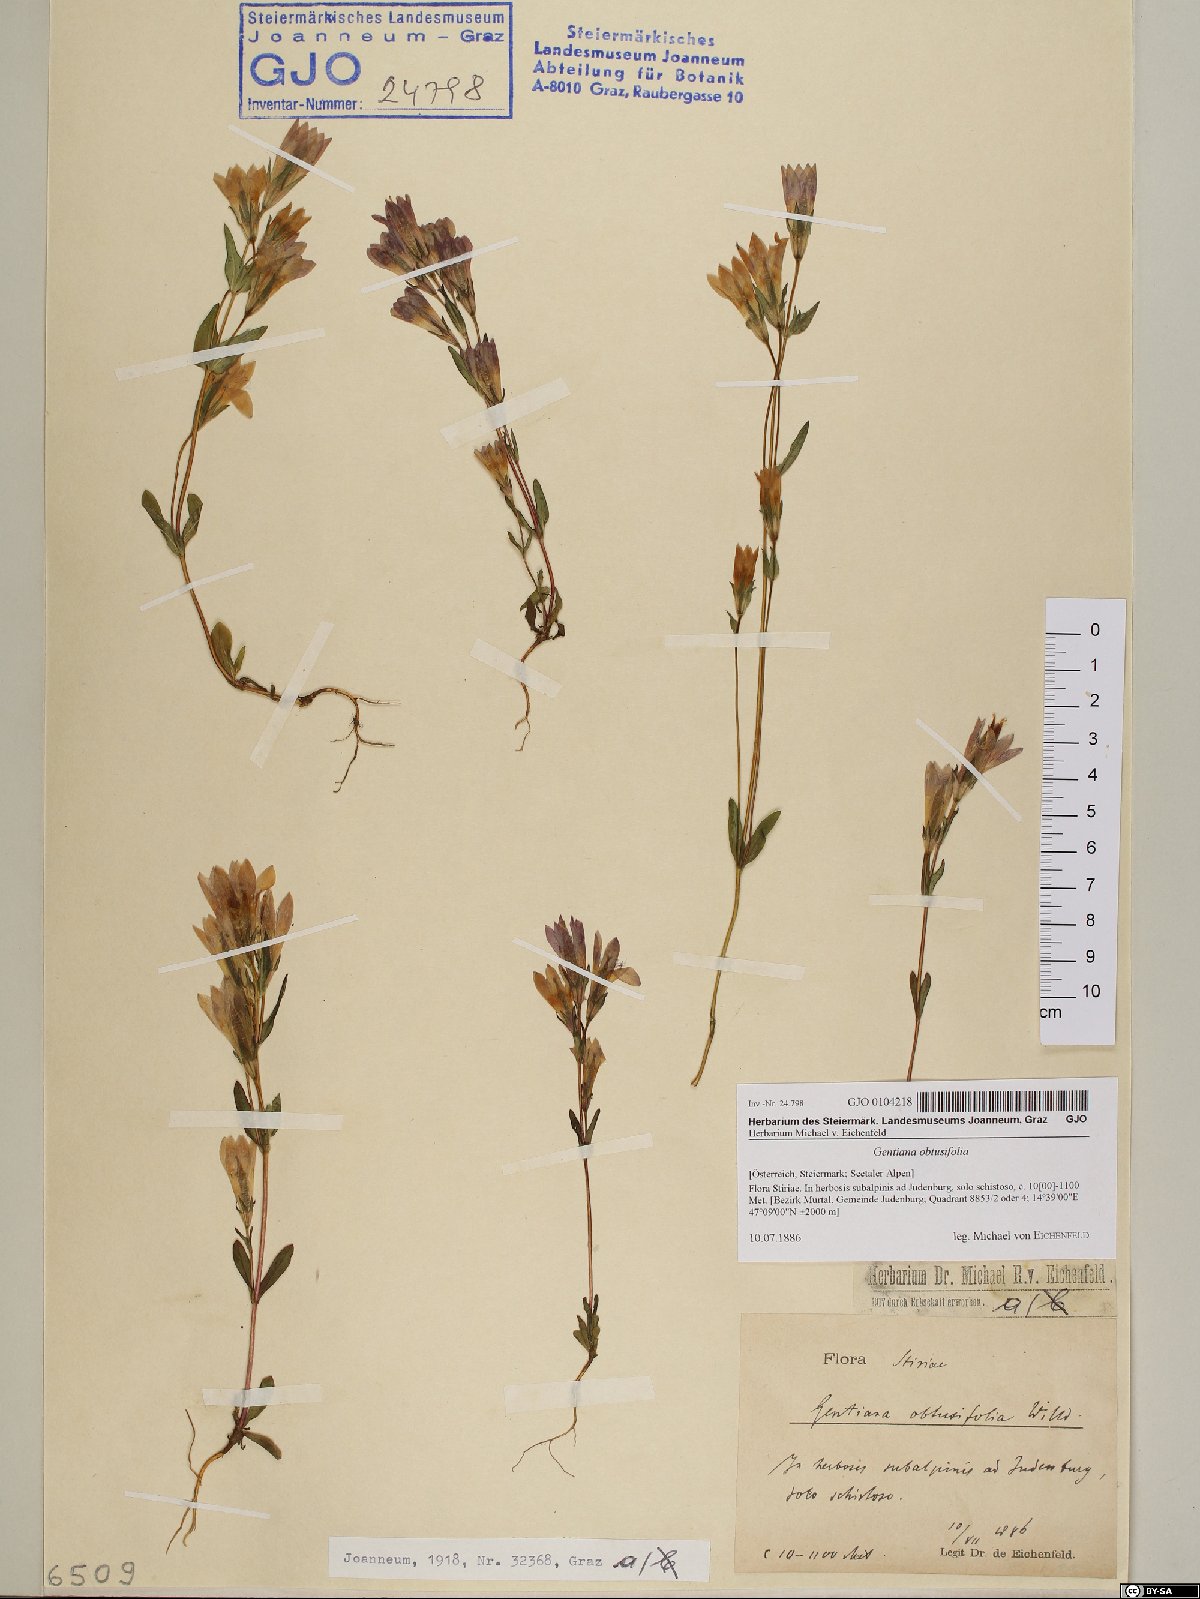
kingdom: Plantae
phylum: Tracheophyta
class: Magnoliopsida
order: Gentianales
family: Gentianaceae
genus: Gentianella
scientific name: Gentianella obtusifolia
